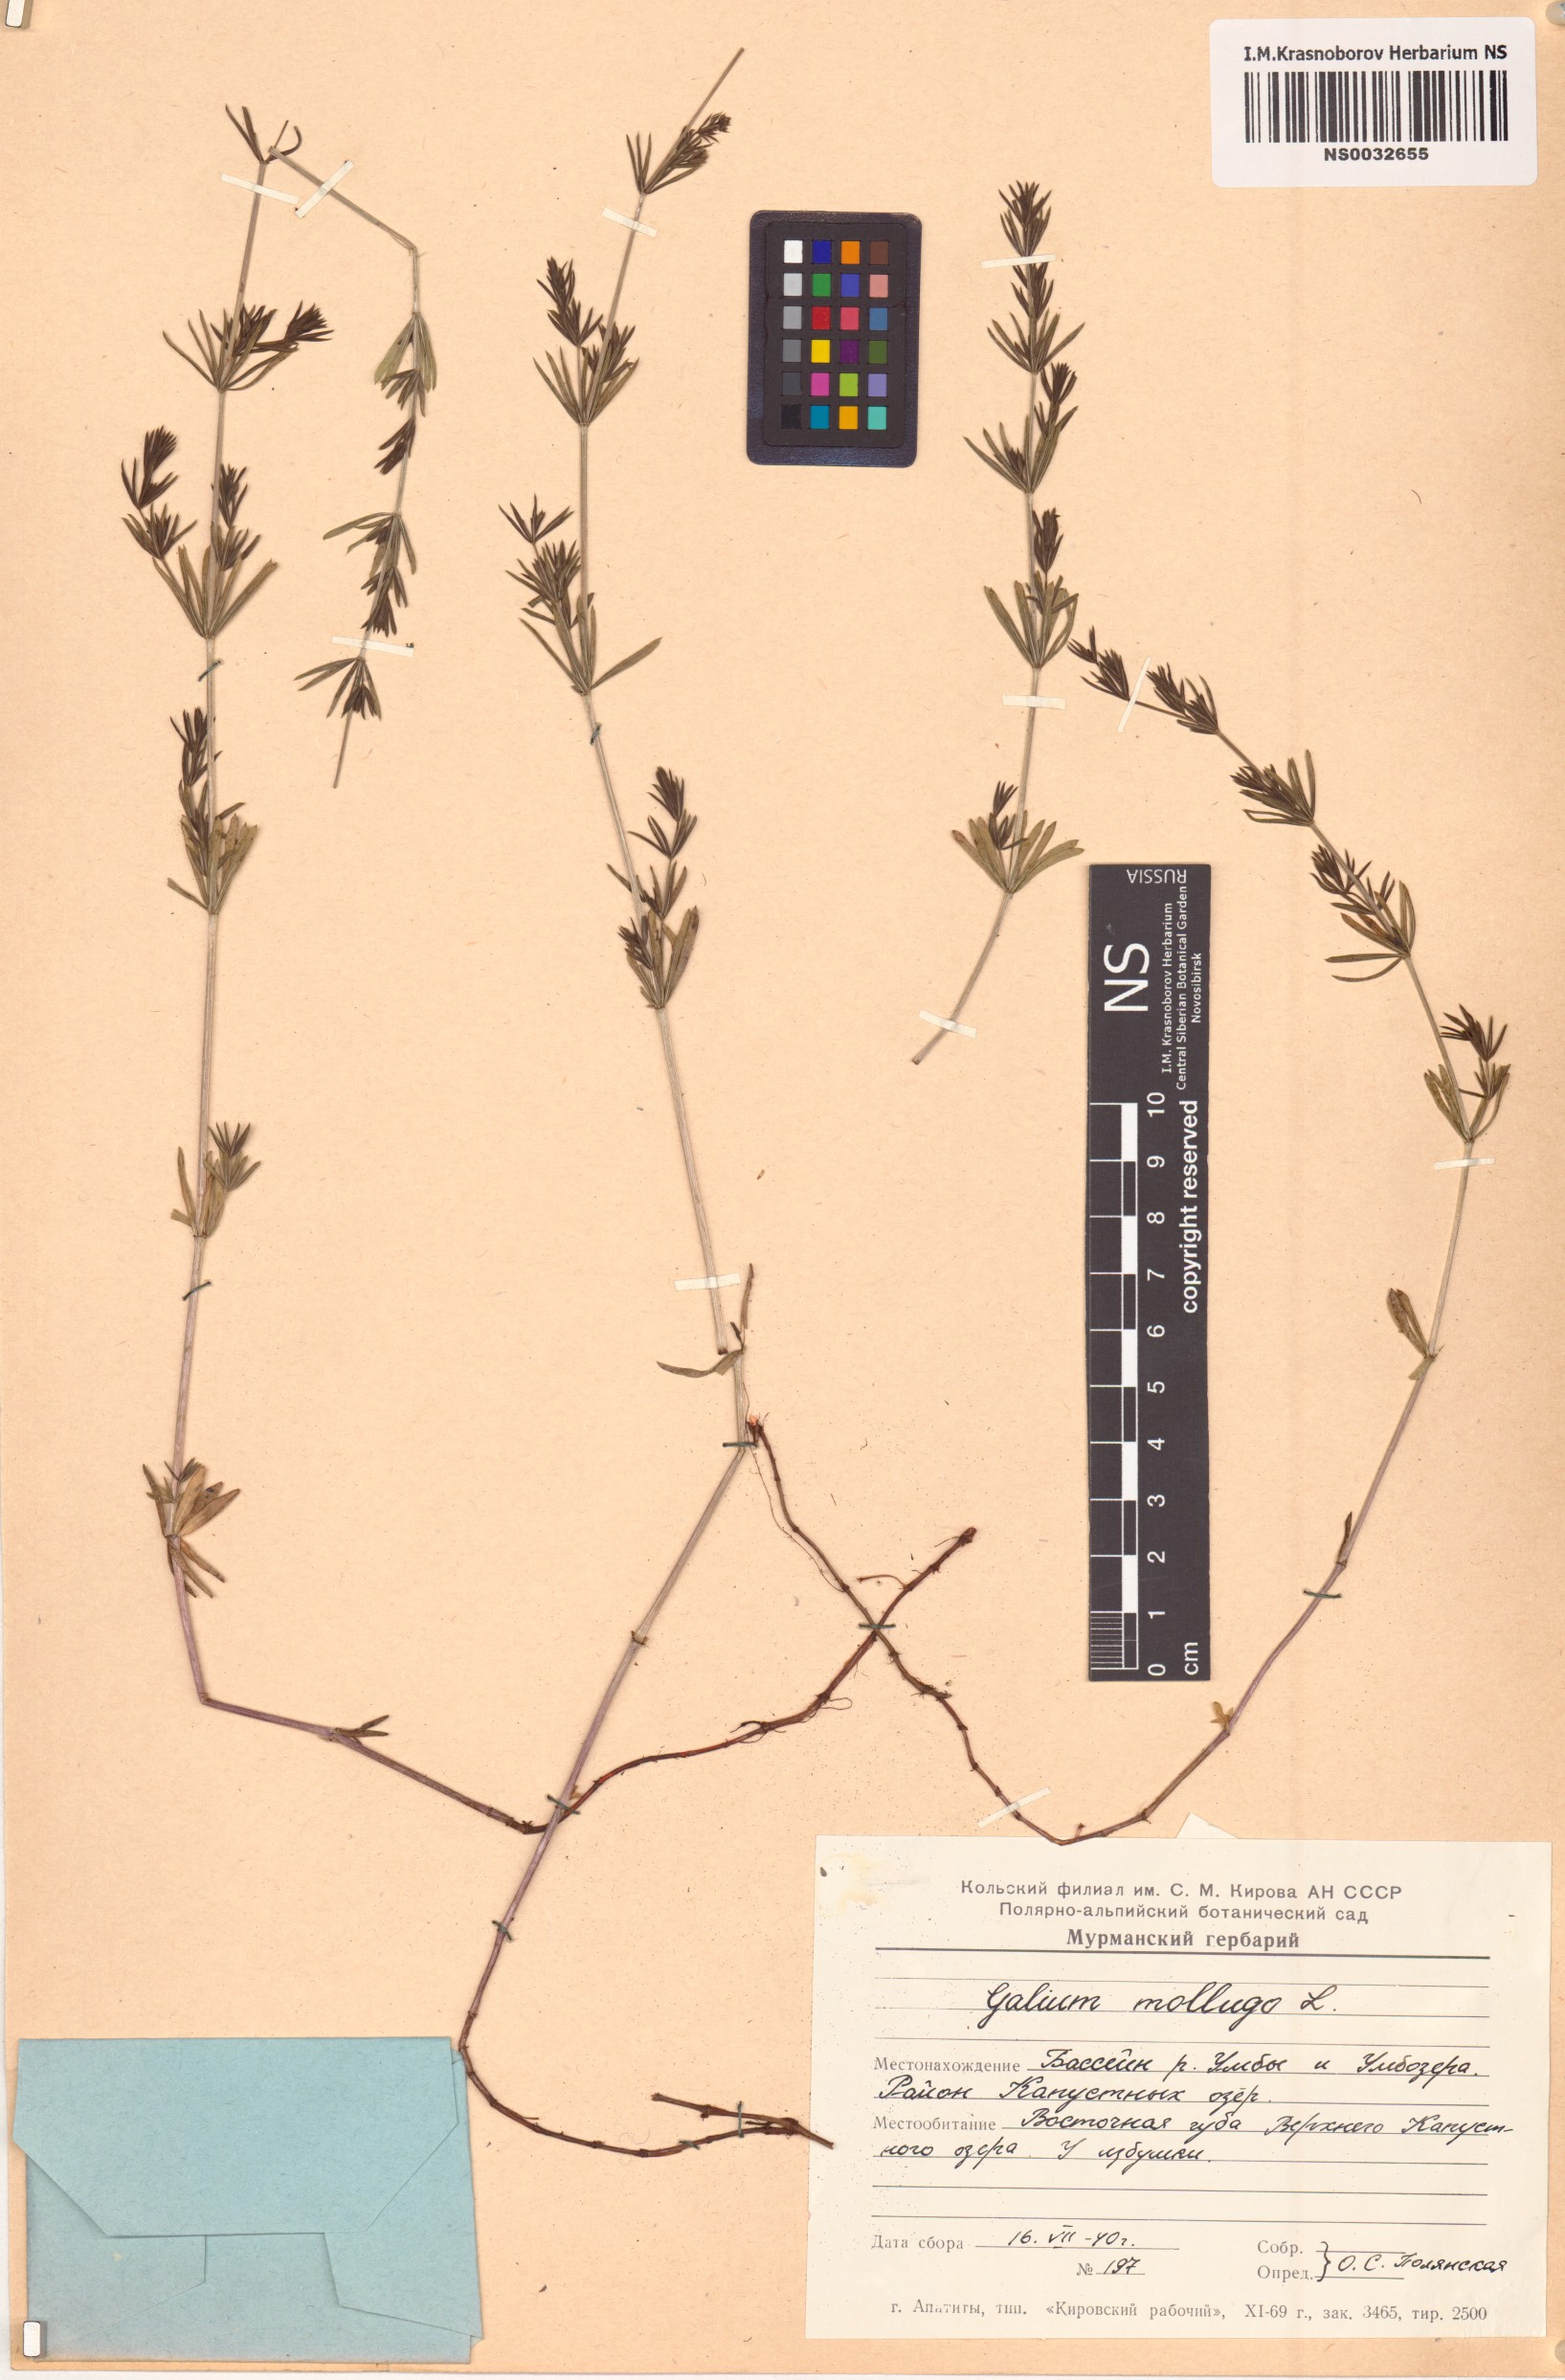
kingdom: Plantae
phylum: Tracheophyta
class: Magnoliopsida
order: Gentianales
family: Rubiaceae
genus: Galium
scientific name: Galium mollugo
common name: Hedge bedstraw
